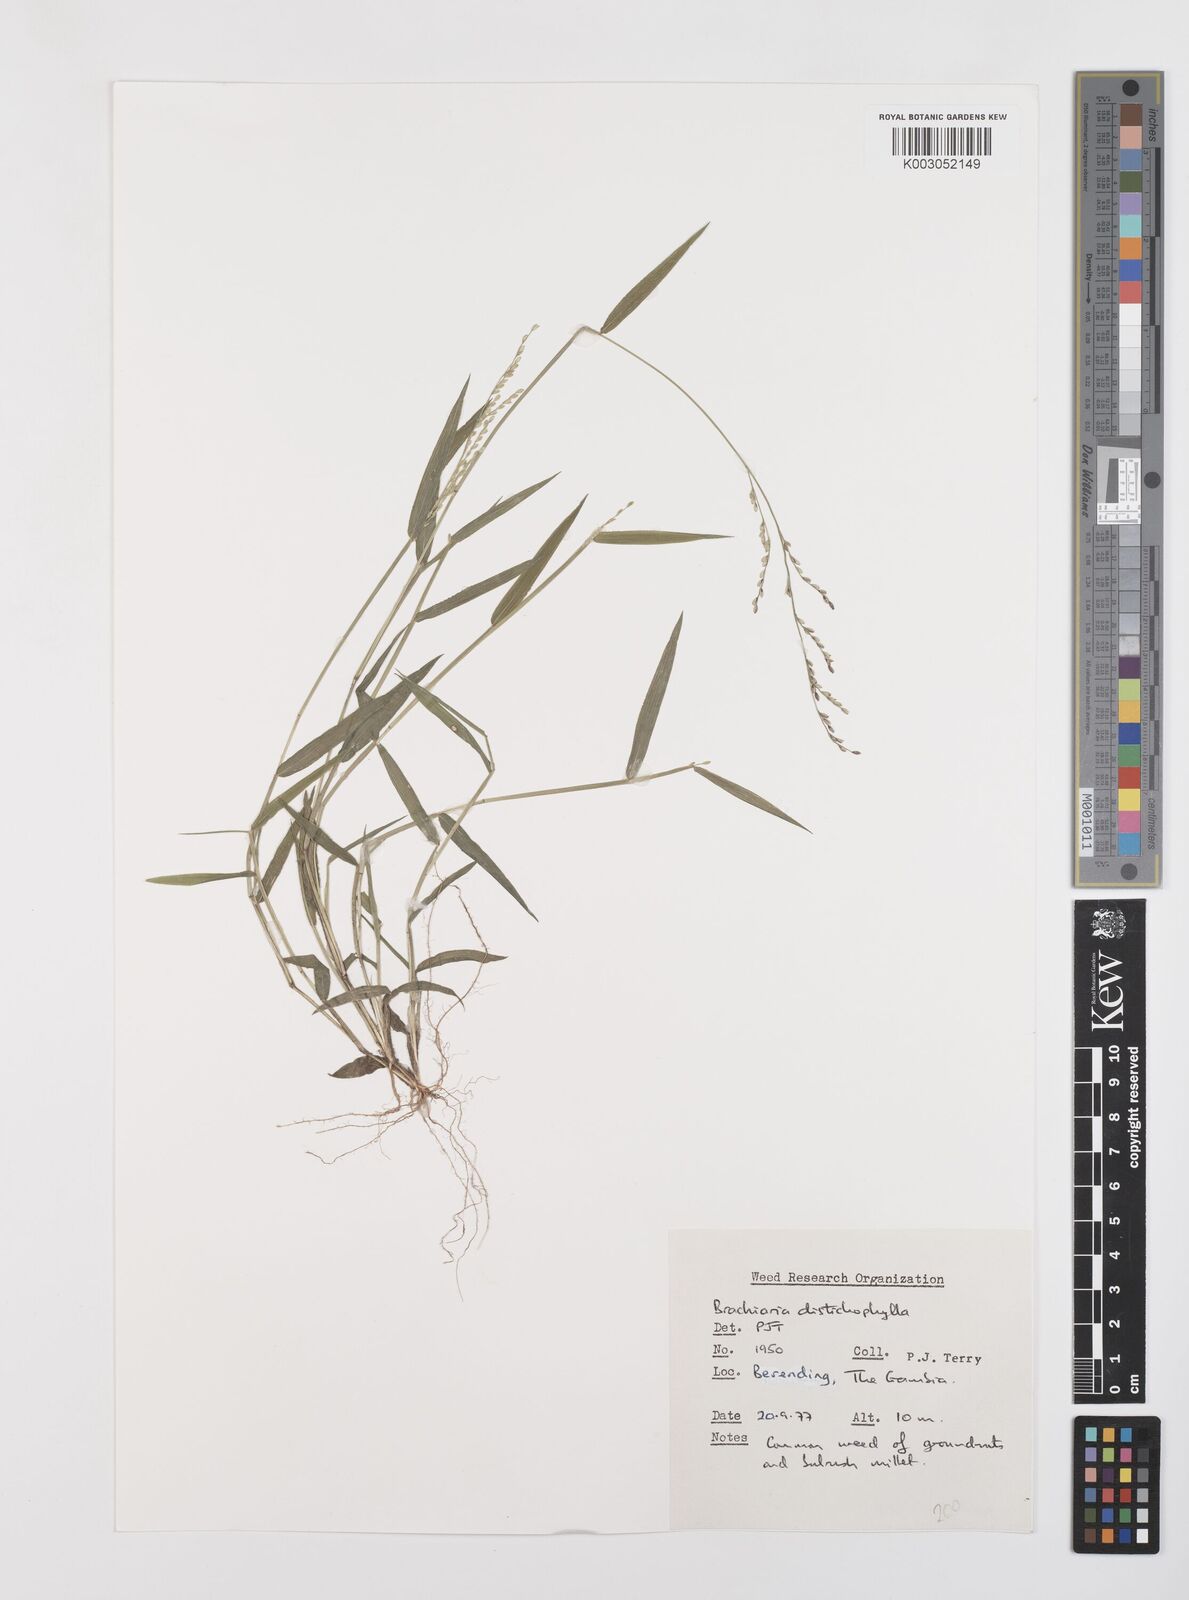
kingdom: Plantae
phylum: Tracheophyta
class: Liliopsida
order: Poales
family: Poaceae
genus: Urochloa
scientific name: Urochloa villosa
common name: Hairy signalgrass
